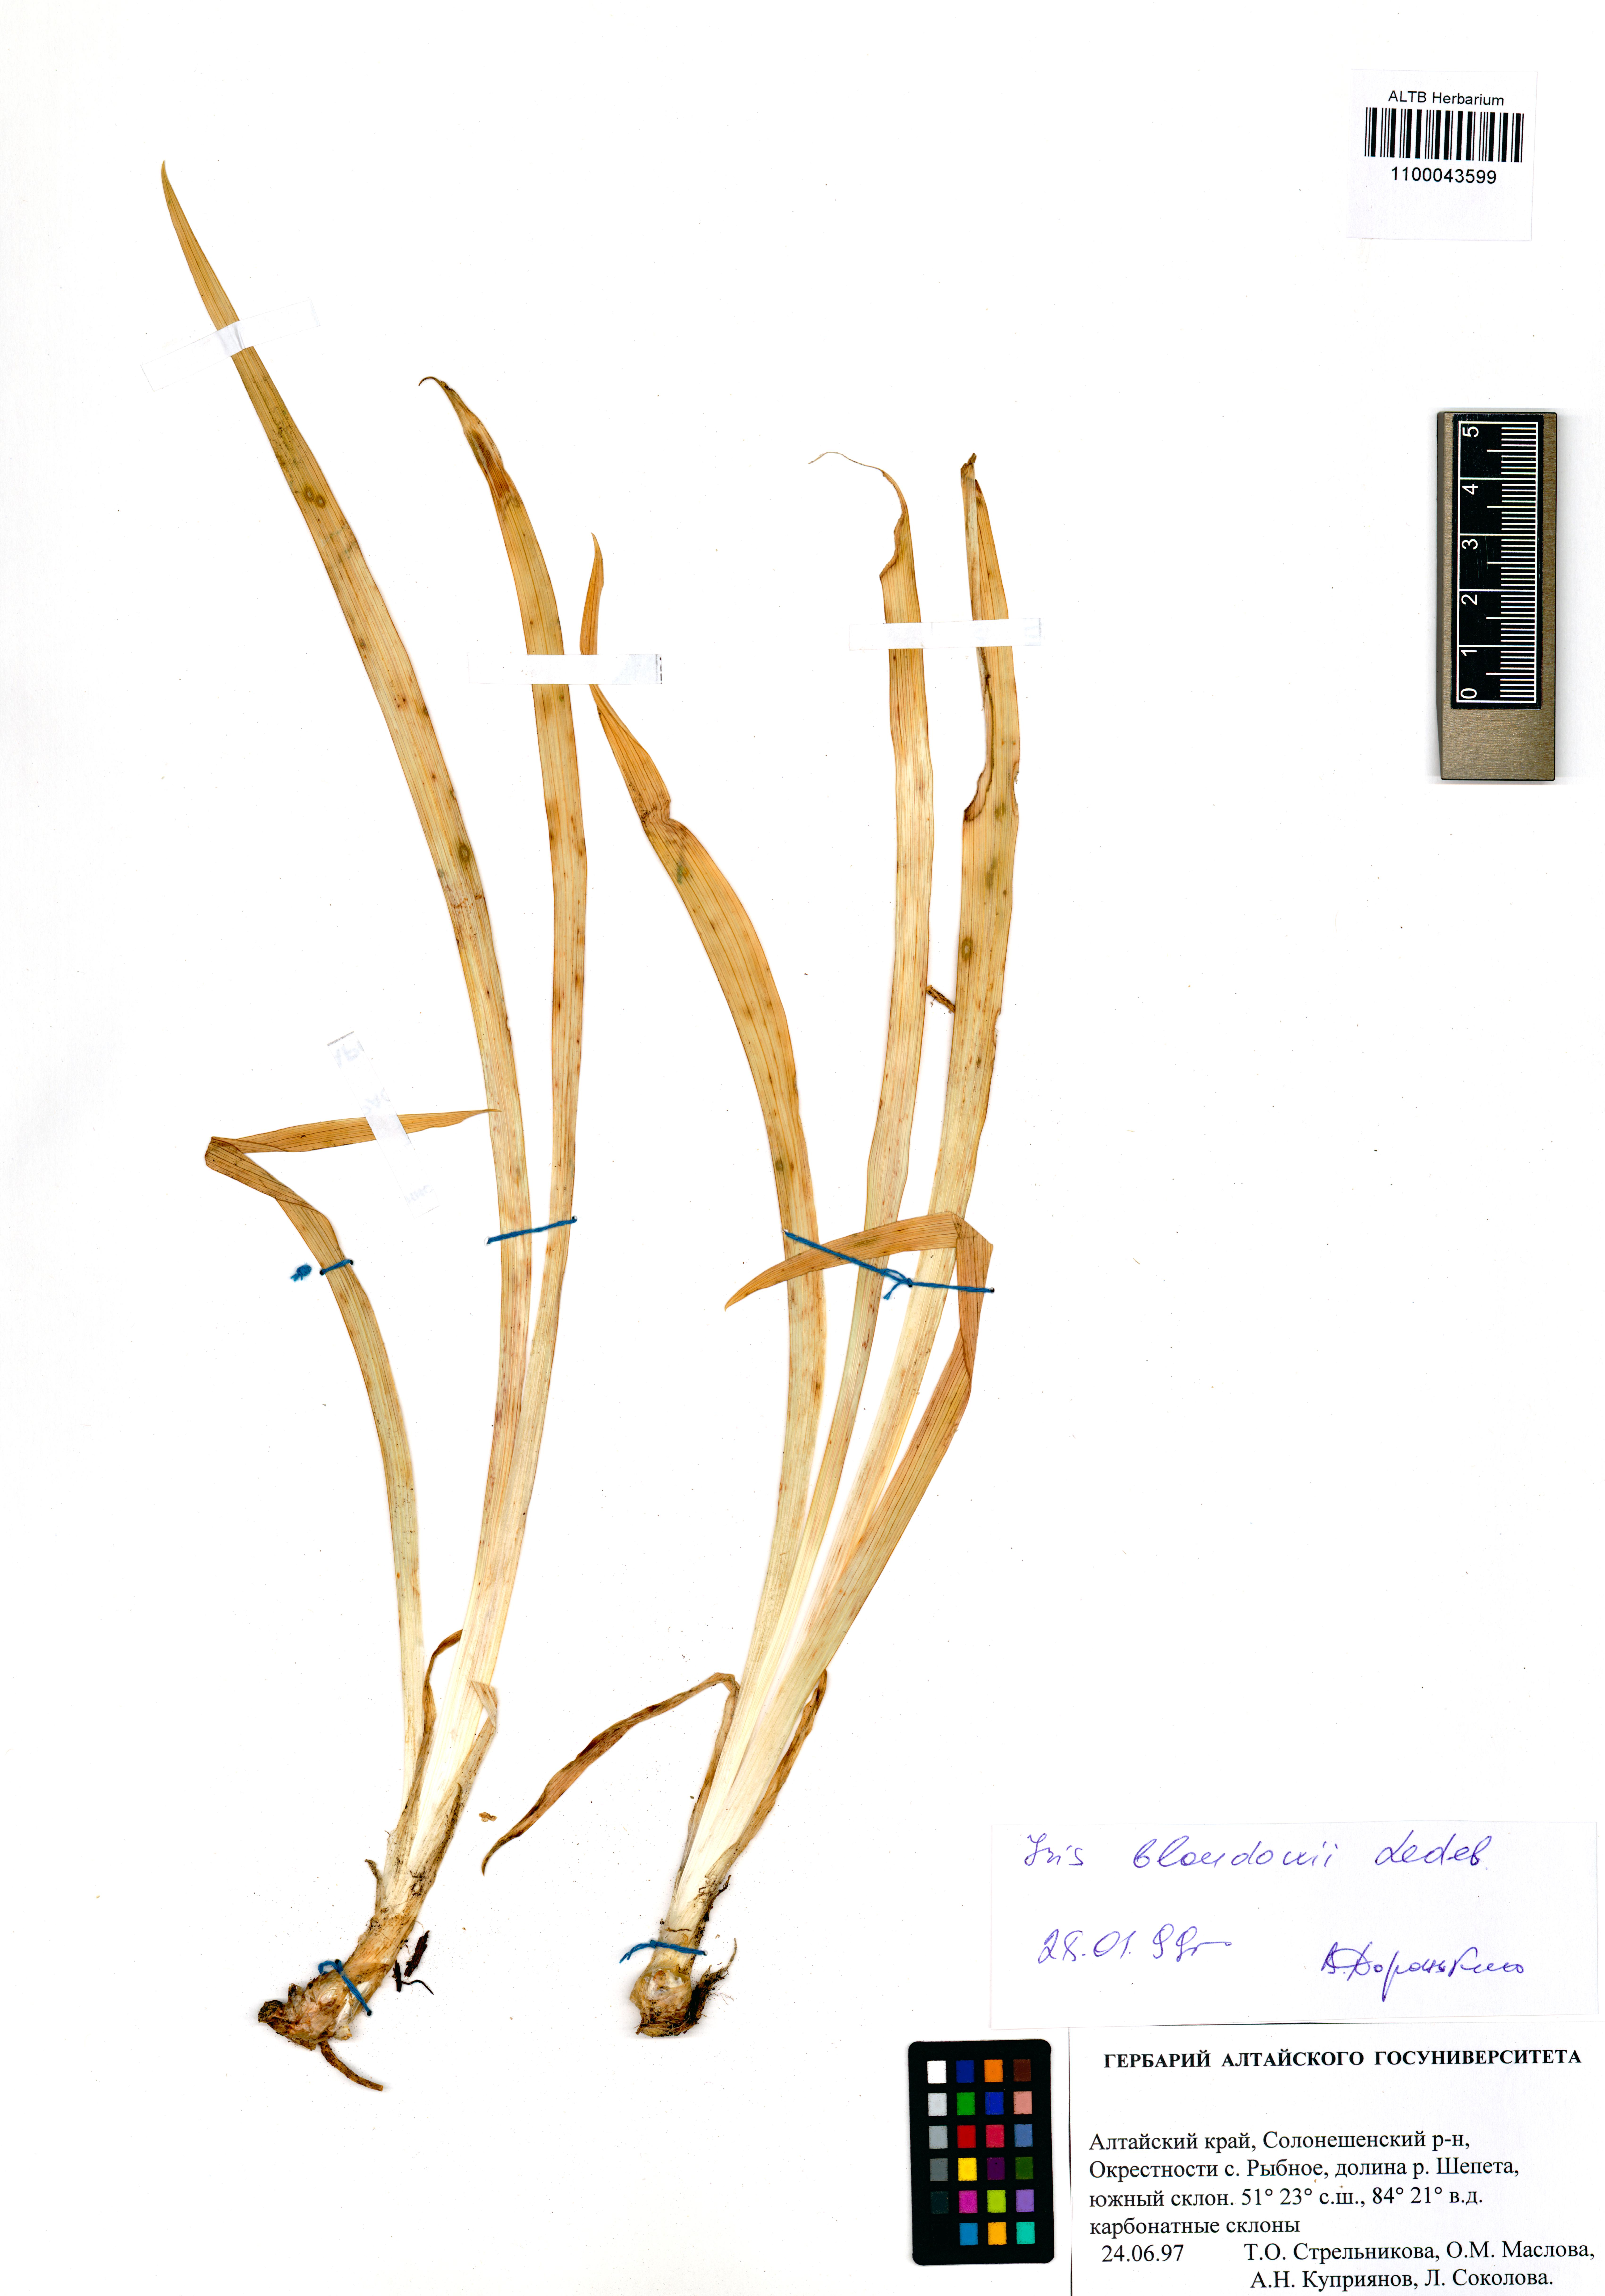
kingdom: Plantae
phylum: Tracheophyta
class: Liliopsida
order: Asparagales
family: Iridaceae
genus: Iris
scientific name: Iris bloudowii
